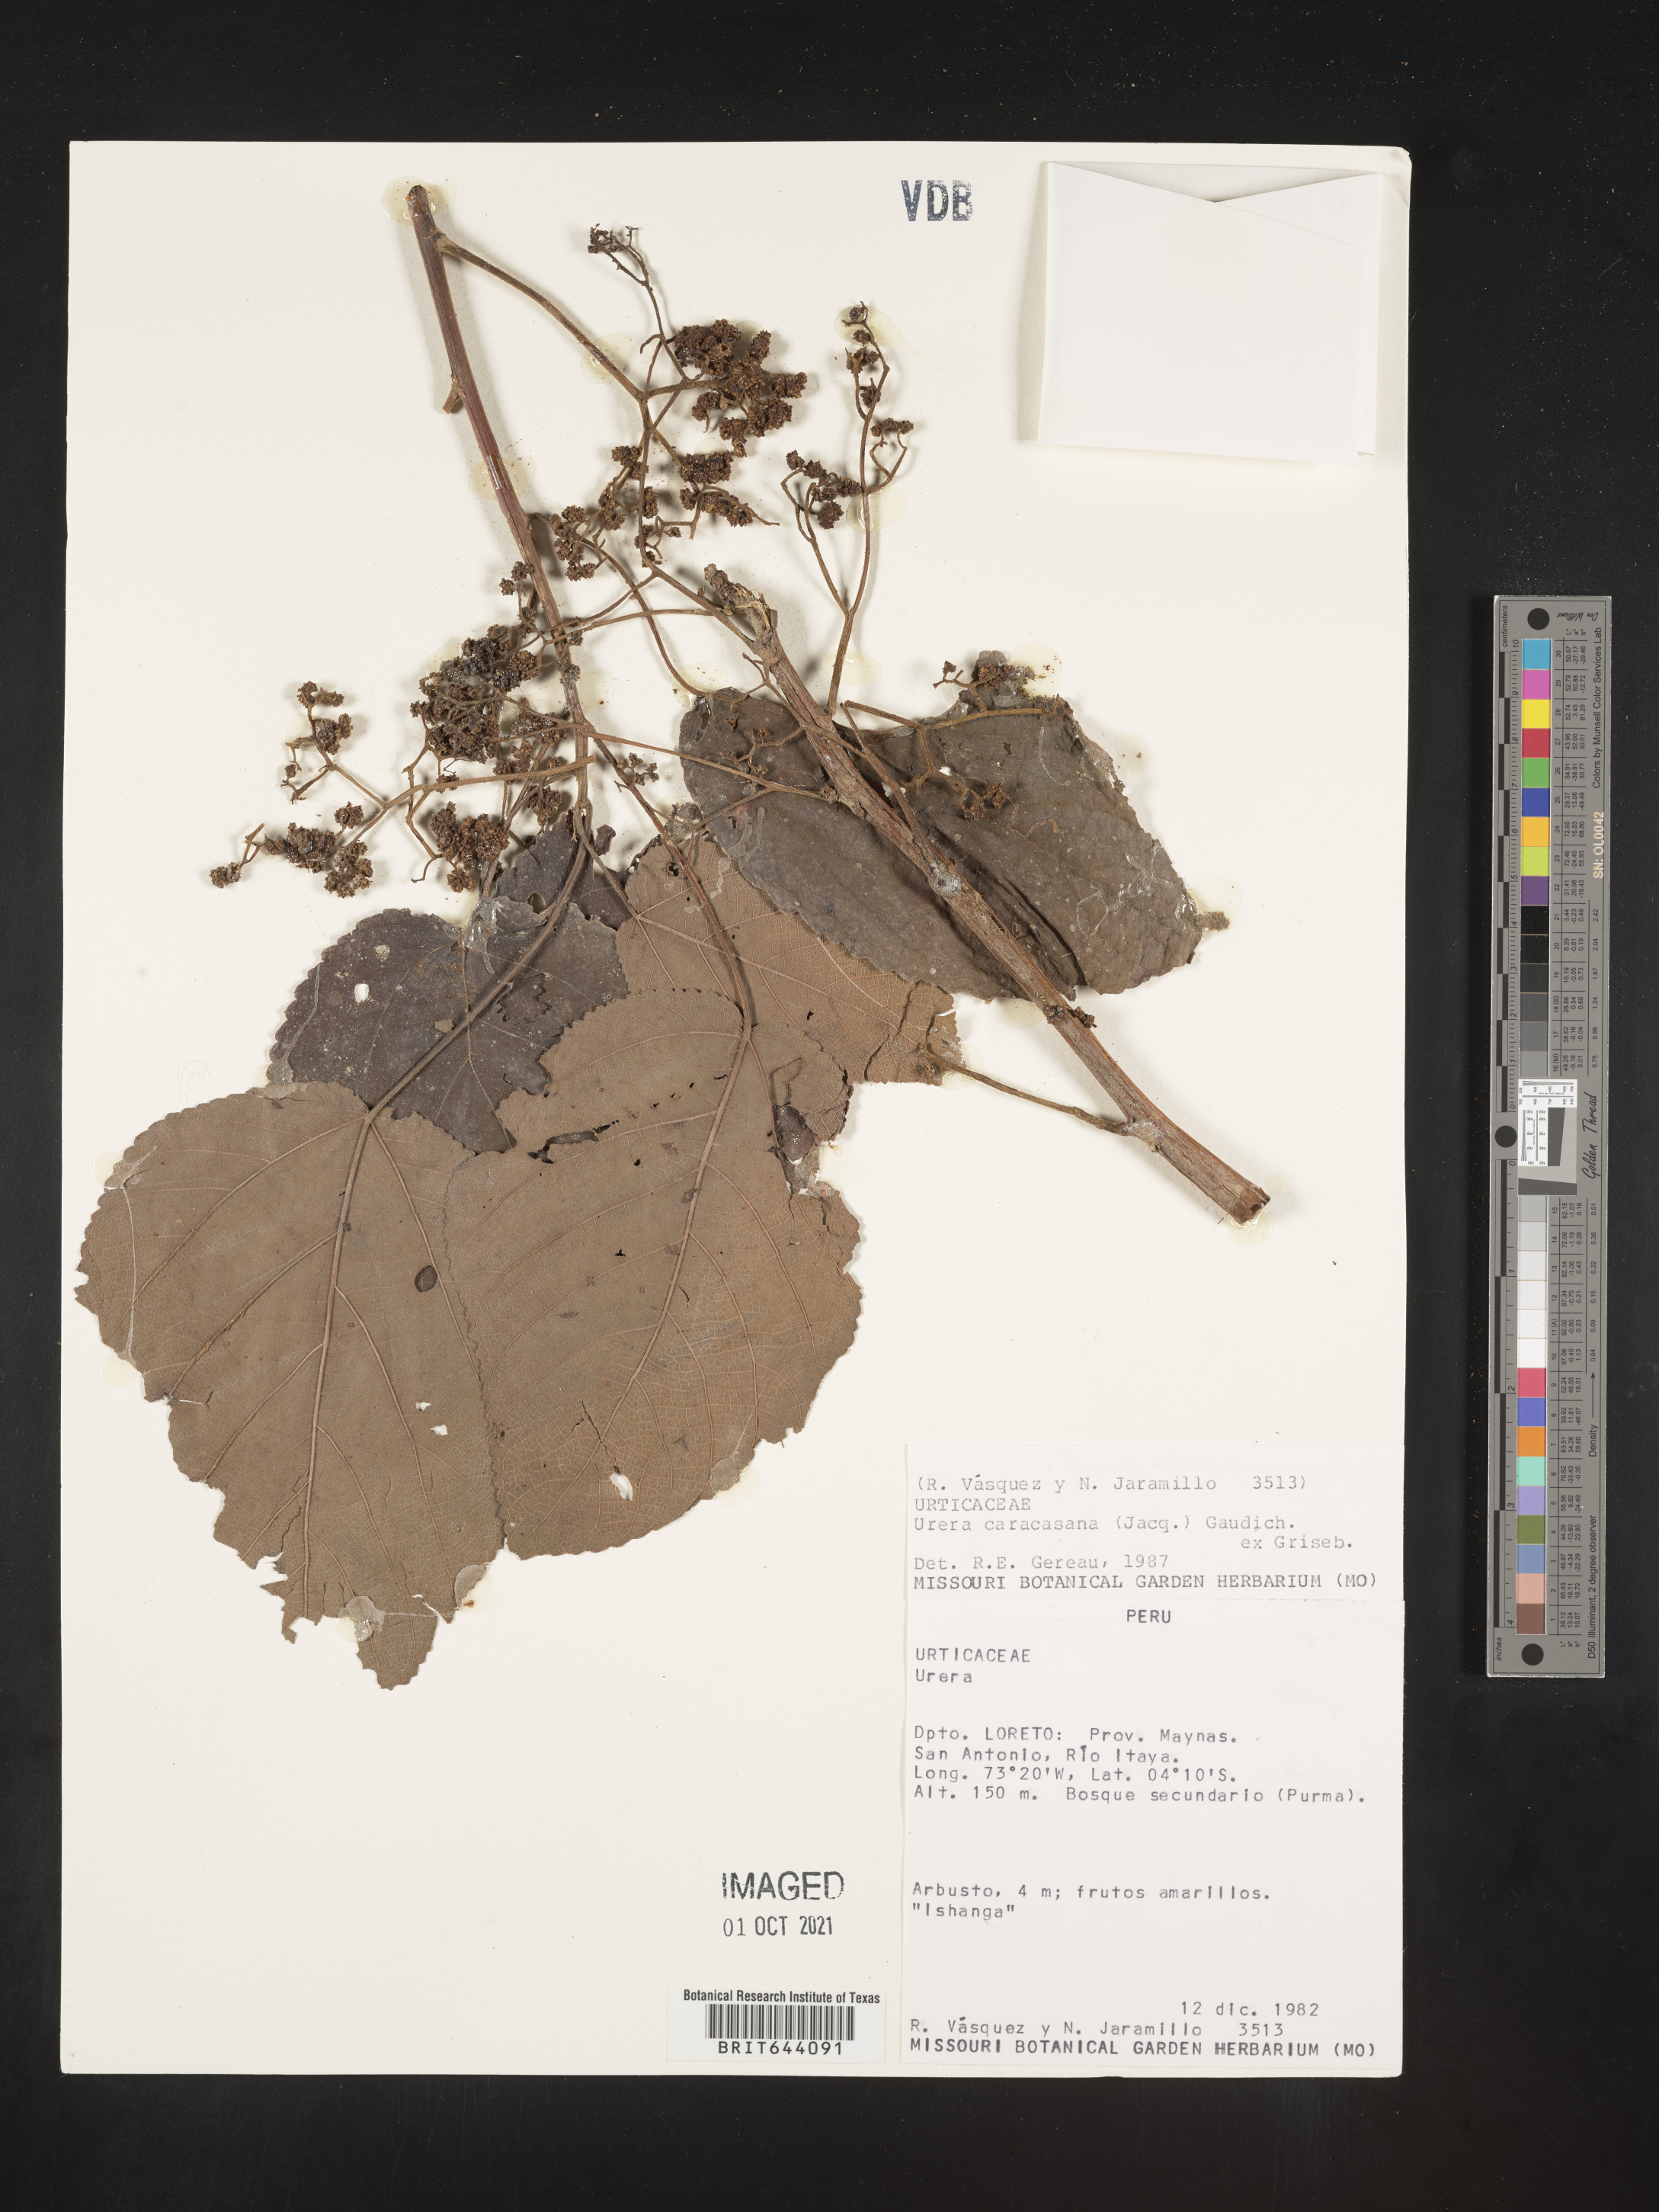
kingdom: Plantae
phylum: Tracheophyta
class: Magnoliopsida
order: Rosales
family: Urticaceae
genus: Urera
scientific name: Urera
